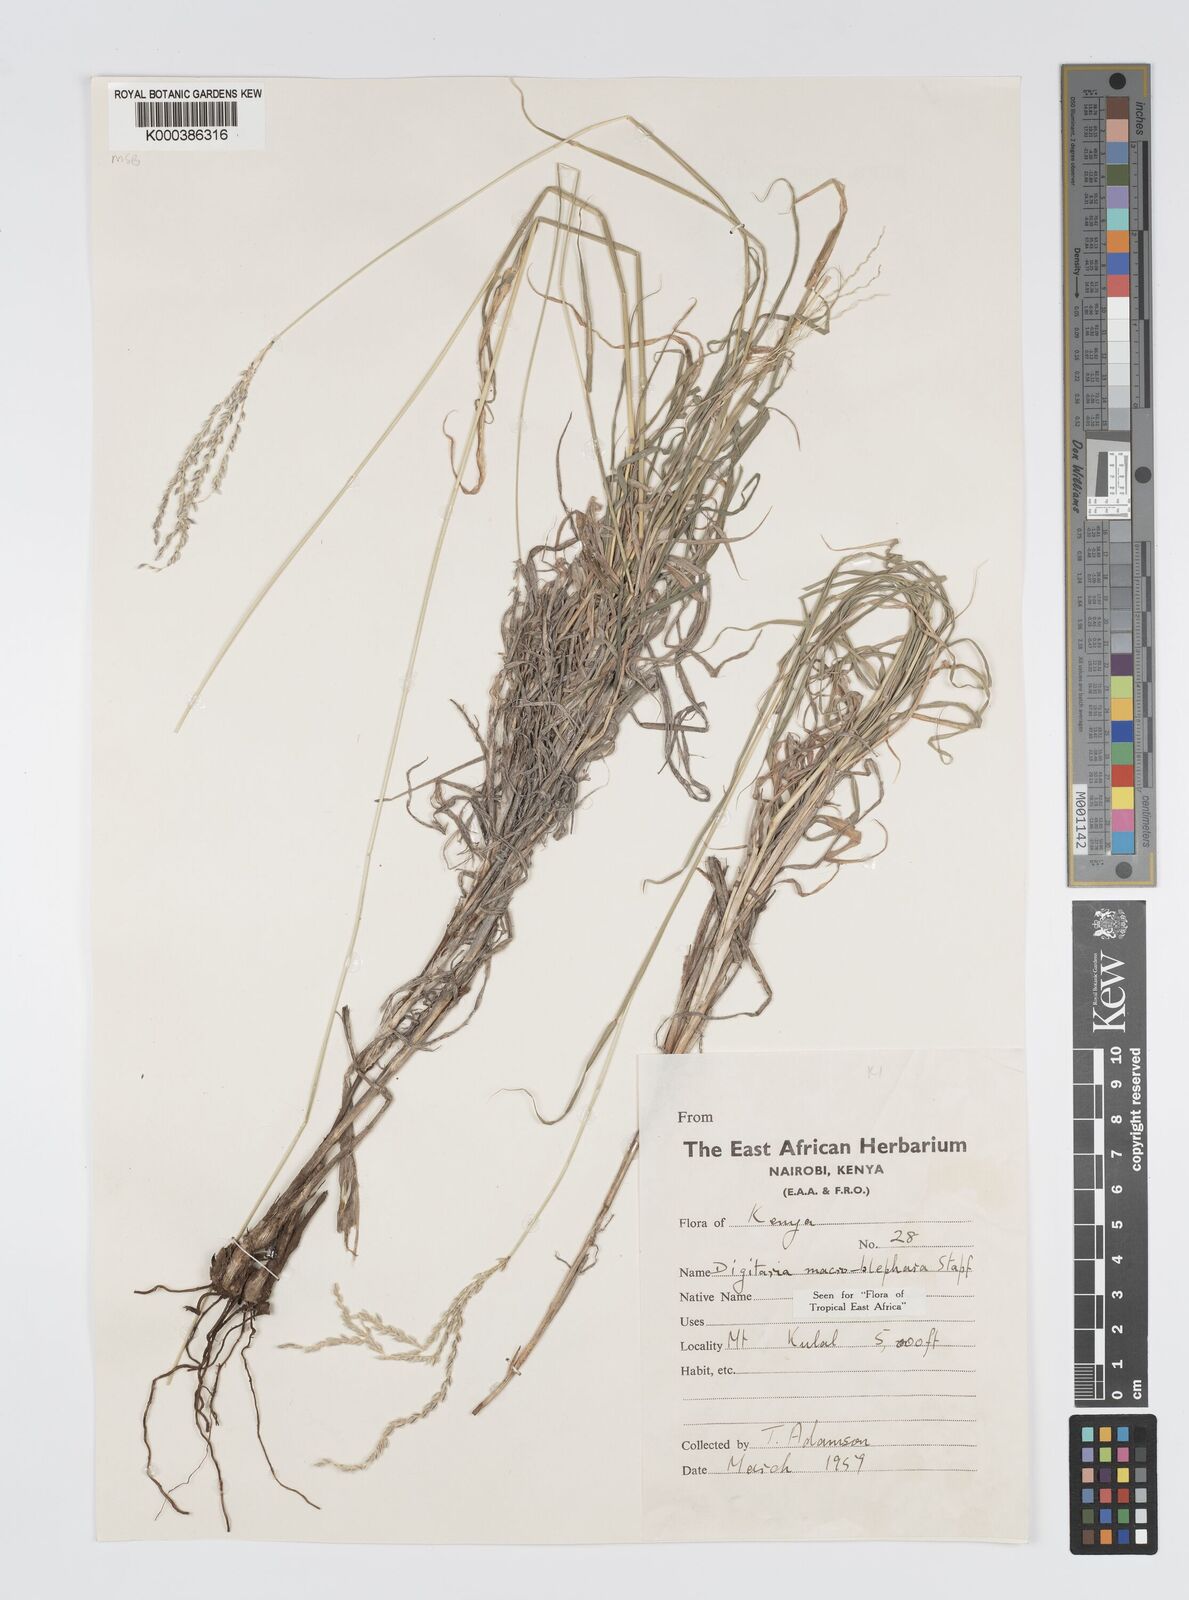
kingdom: Plantae
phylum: Tracheophyta
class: Liliopsida
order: Poales
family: Poaceae
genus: Digitaria
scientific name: Digitaria macroblephara
